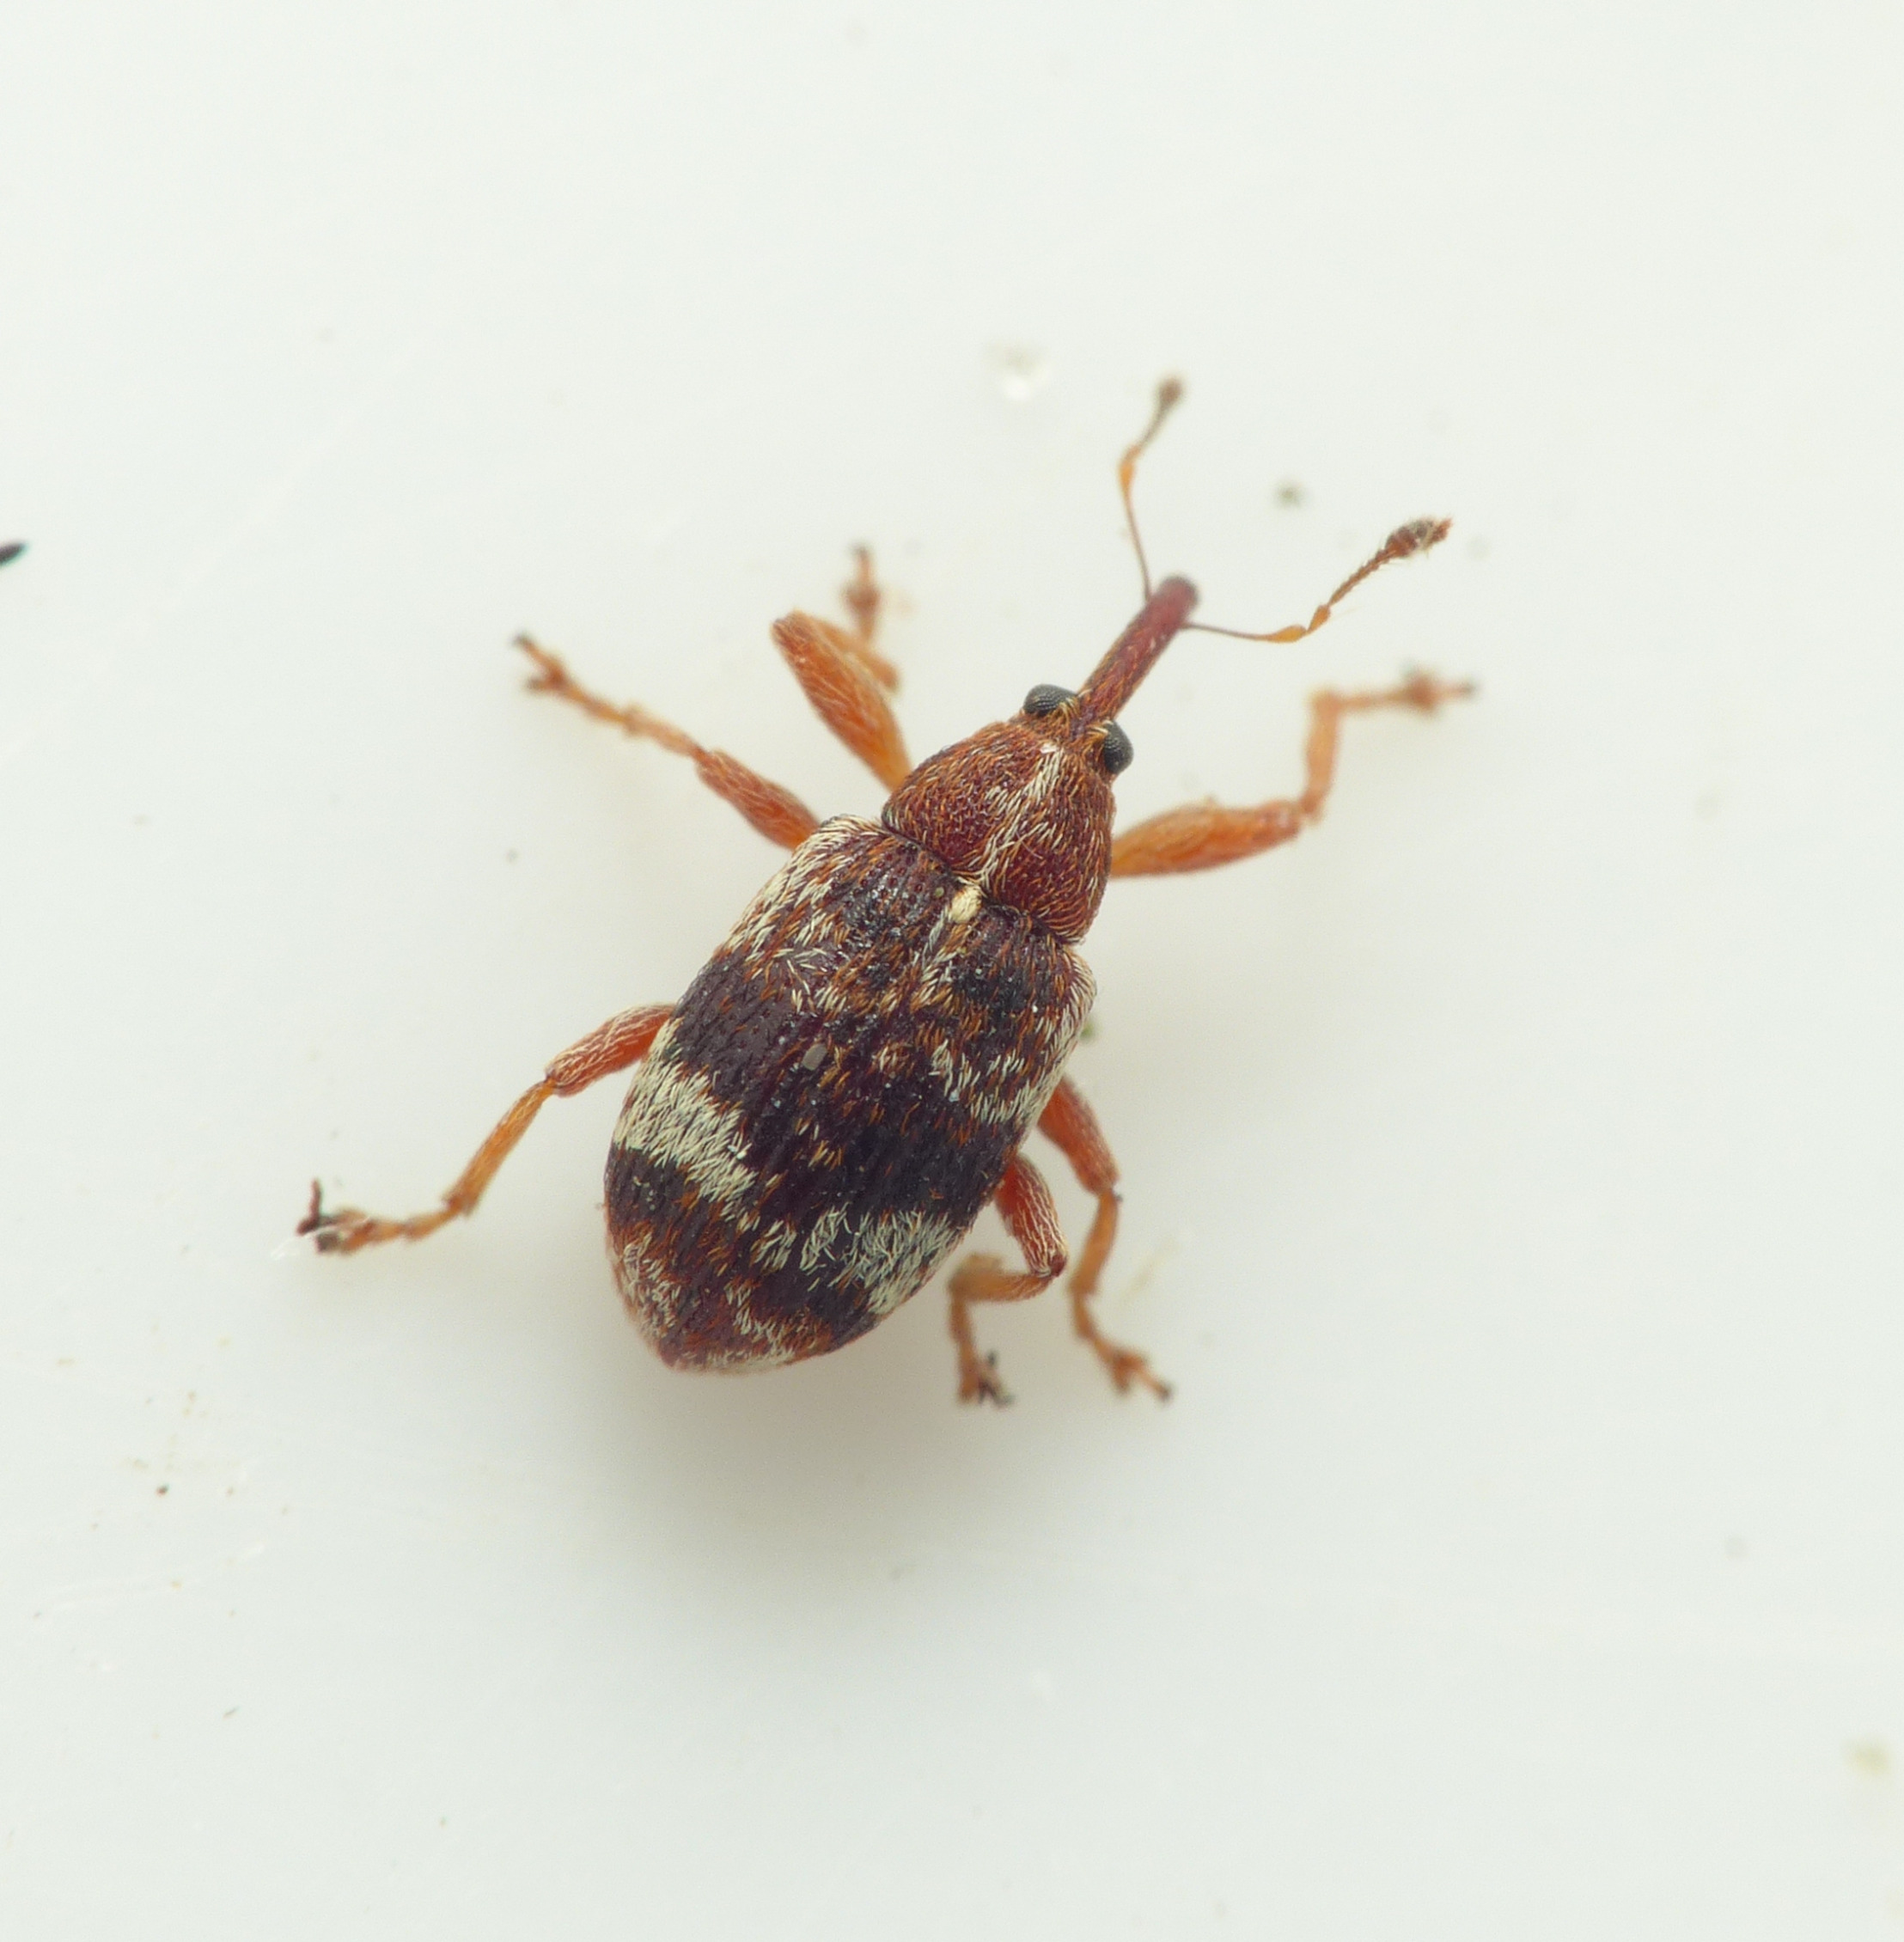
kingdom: Animalia
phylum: Arthropoda
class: Insecta
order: Coleoptera
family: Curculionidae
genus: Anthonomus
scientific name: Anthonomus pedicularius
